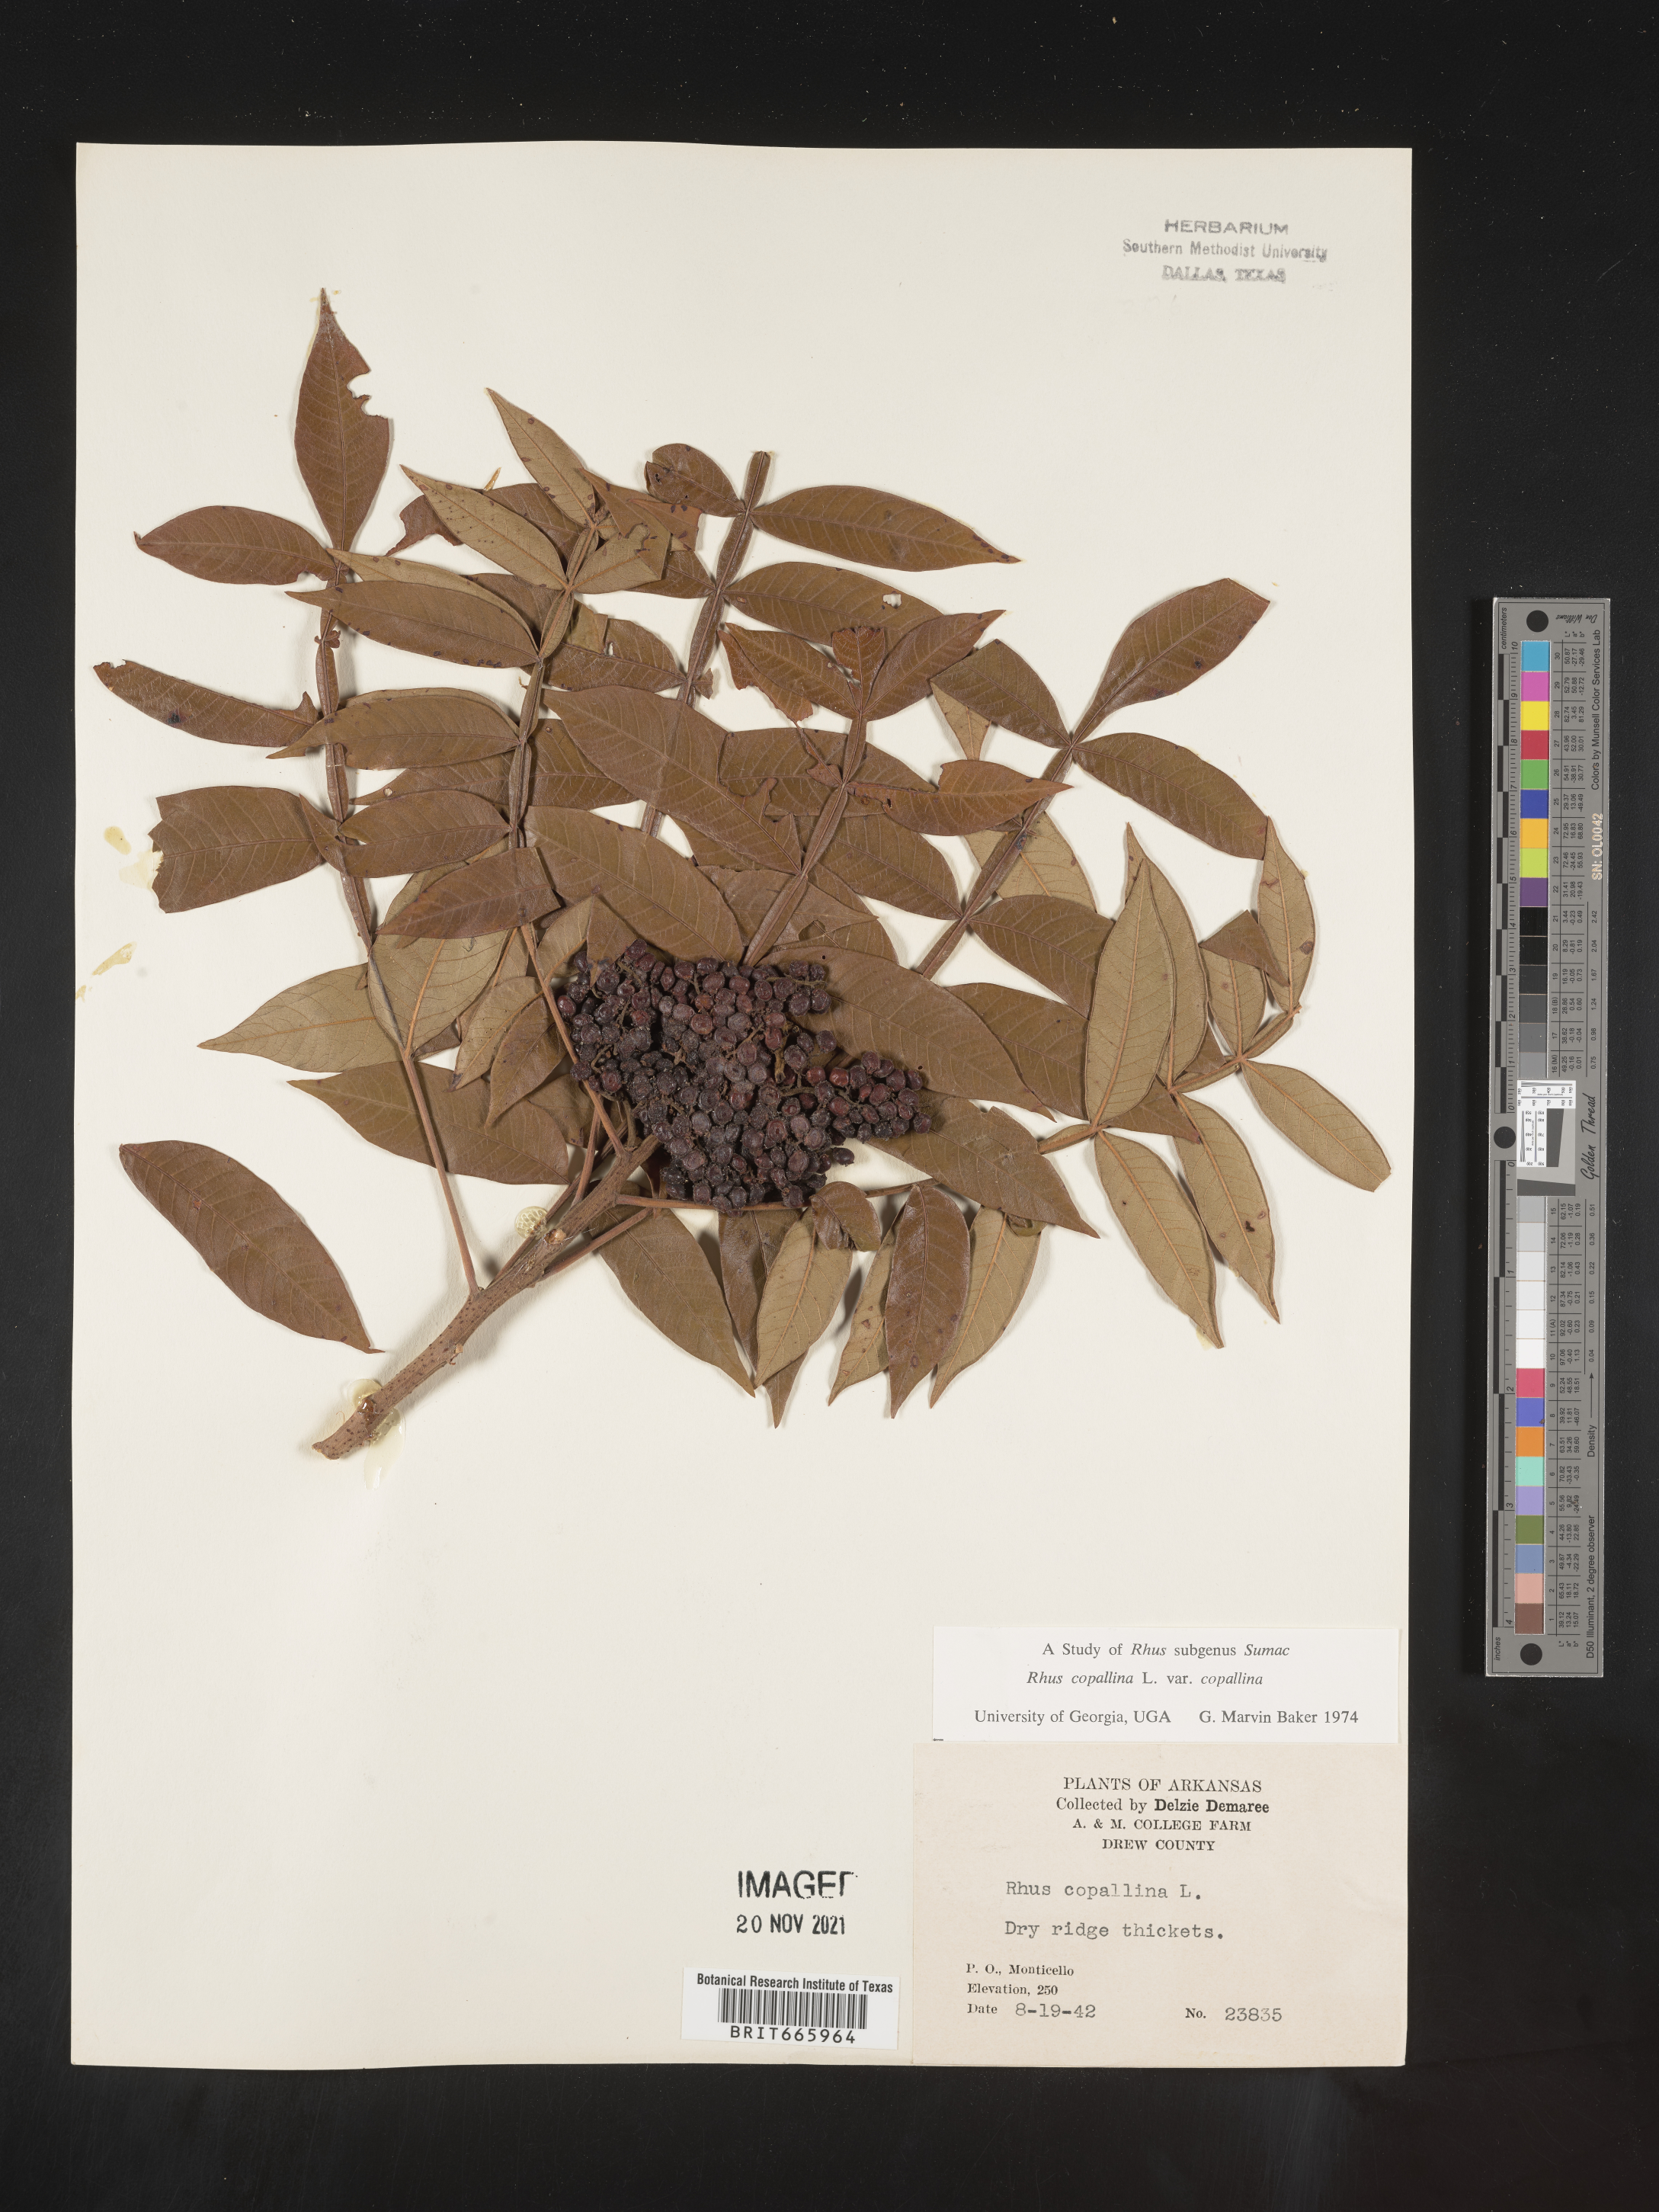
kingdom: Plantae
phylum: Tracheophyta
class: Magnoliopsida
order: Sapindales
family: Anacardiaceae
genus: Rhus
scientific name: Rhus copallina
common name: Shining sumac
